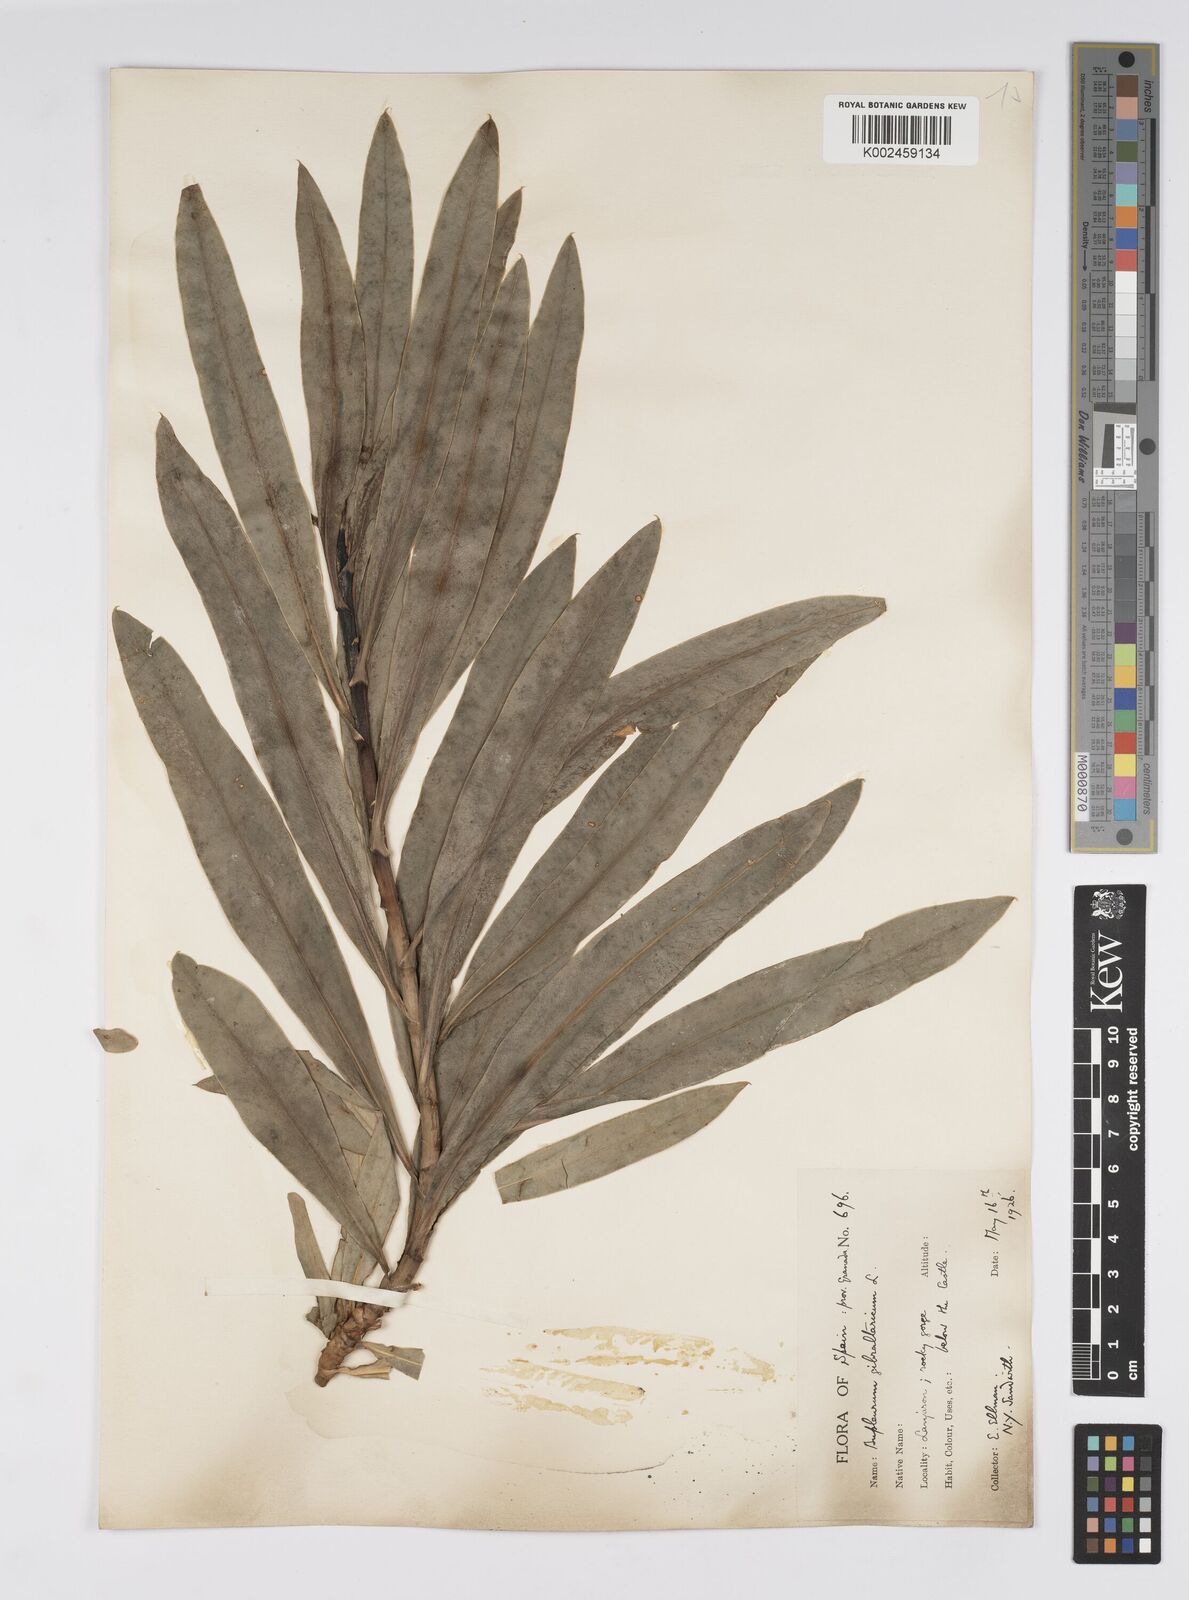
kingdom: Plantae
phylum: Tracheophyta
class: Magnoliopsida
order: Apiales
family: Apiaceae
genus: Bupleurum
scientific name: Bupleurum gibraltaricum
